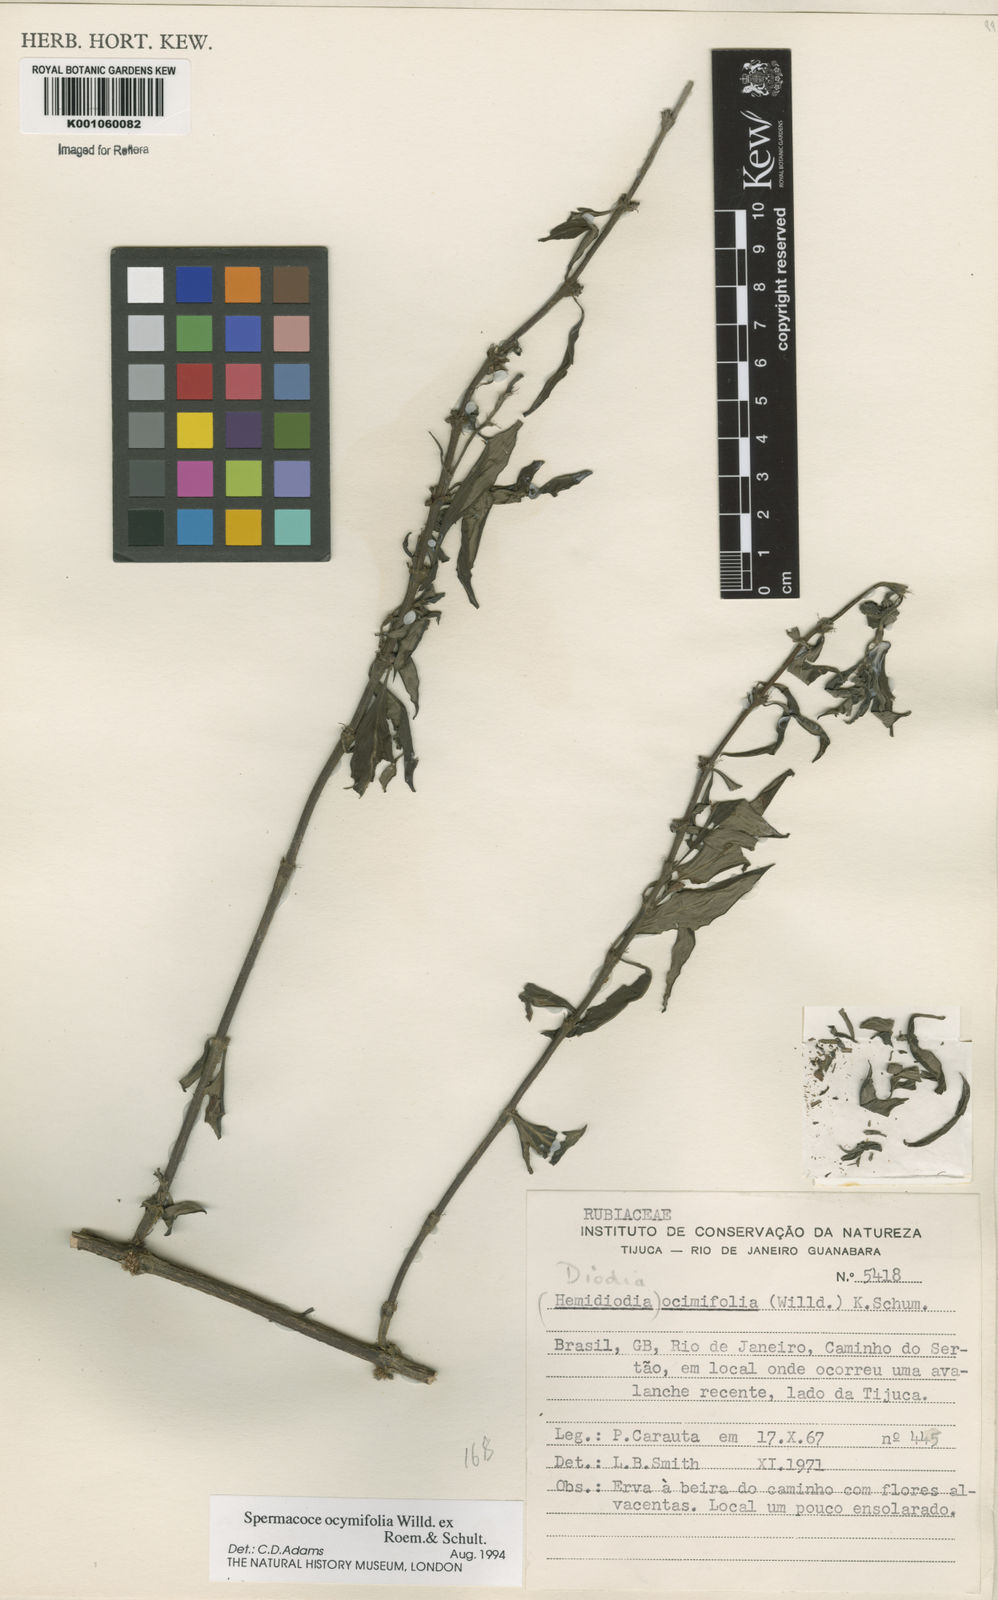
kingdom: Plantae
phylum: Tracheophyta
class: Magnoliopsida
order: Gentianales
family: Rubiaceae
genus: Spermacoce
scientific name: Spermacoce
